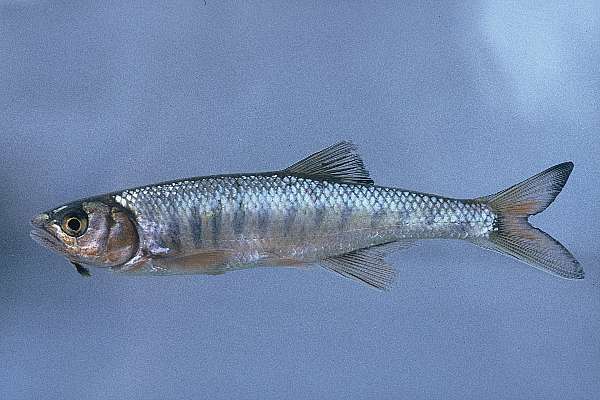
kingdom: Animalia
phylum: Chordata
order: Cypriniformes
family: Cyprinidae
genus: Opsaridium
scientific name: Opsaridium microcephalum
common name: Lake trout
